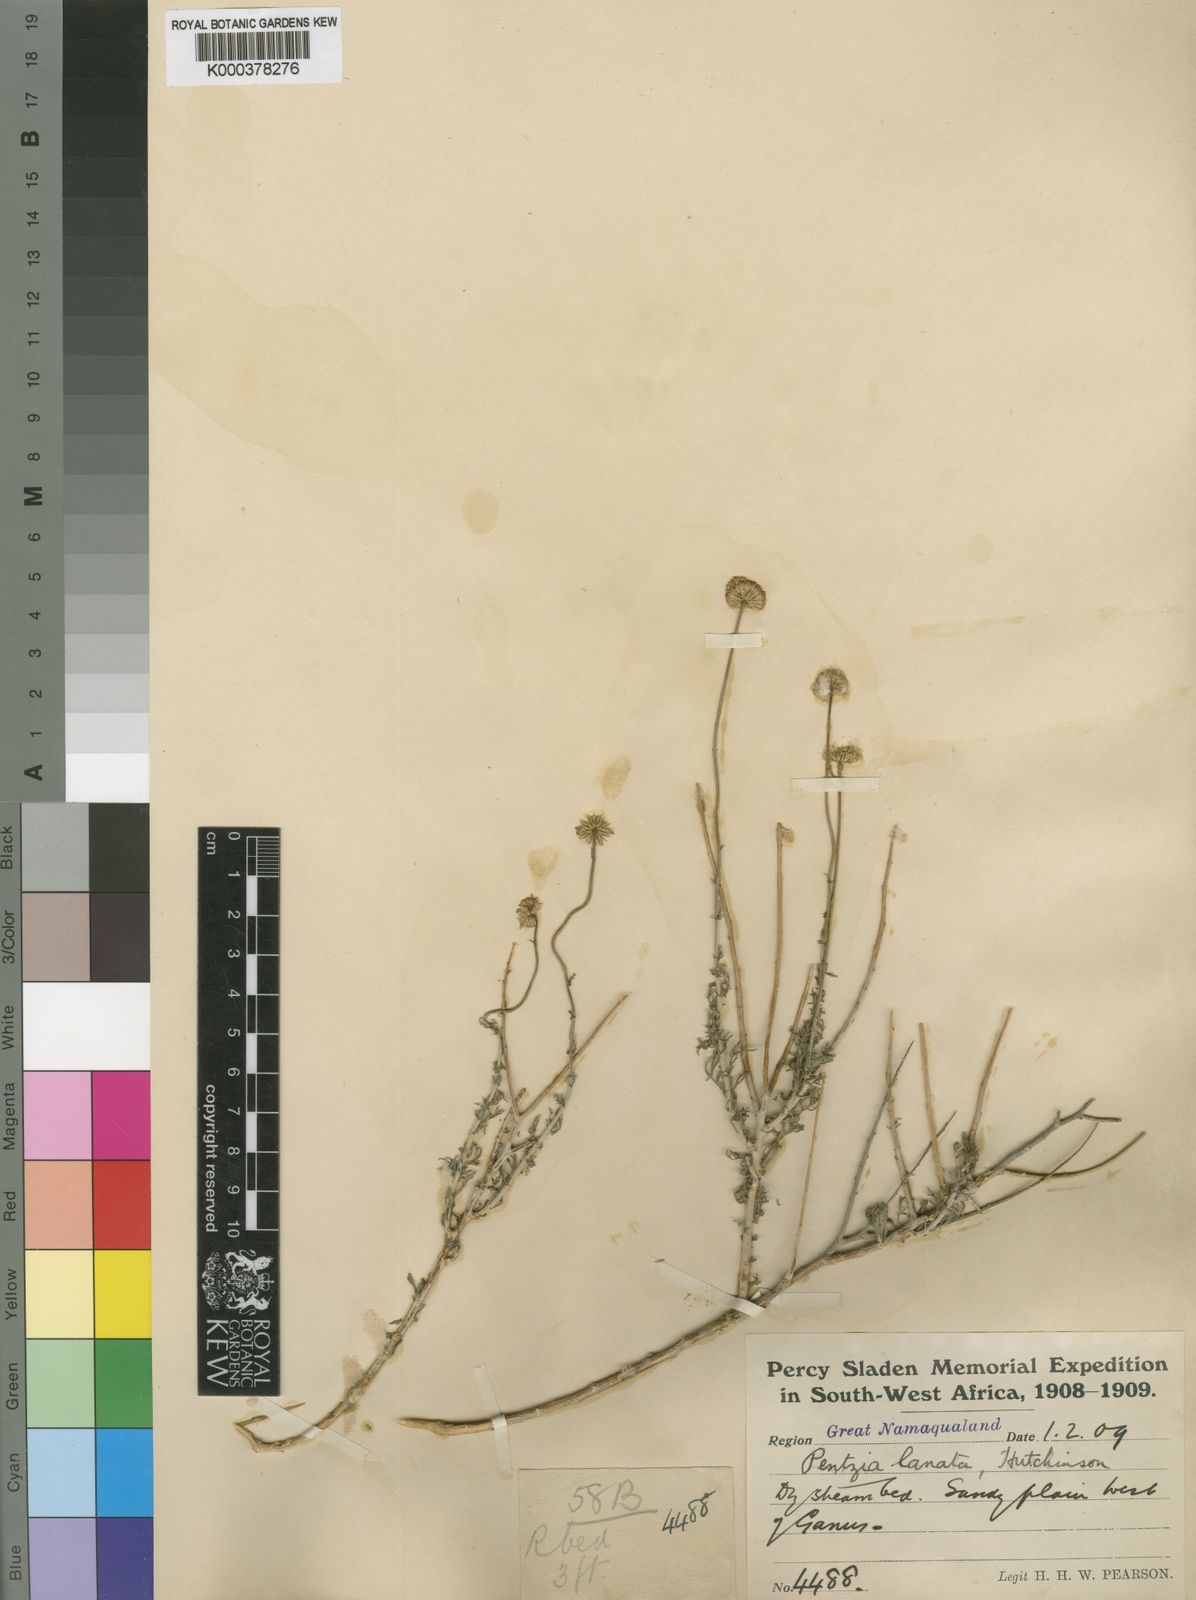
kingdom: Plantae
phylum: Tracheophyta
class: Magnoliopsida
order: Asterales
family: Asteraceae
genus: Pentzia
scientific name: Pentzia lanata
